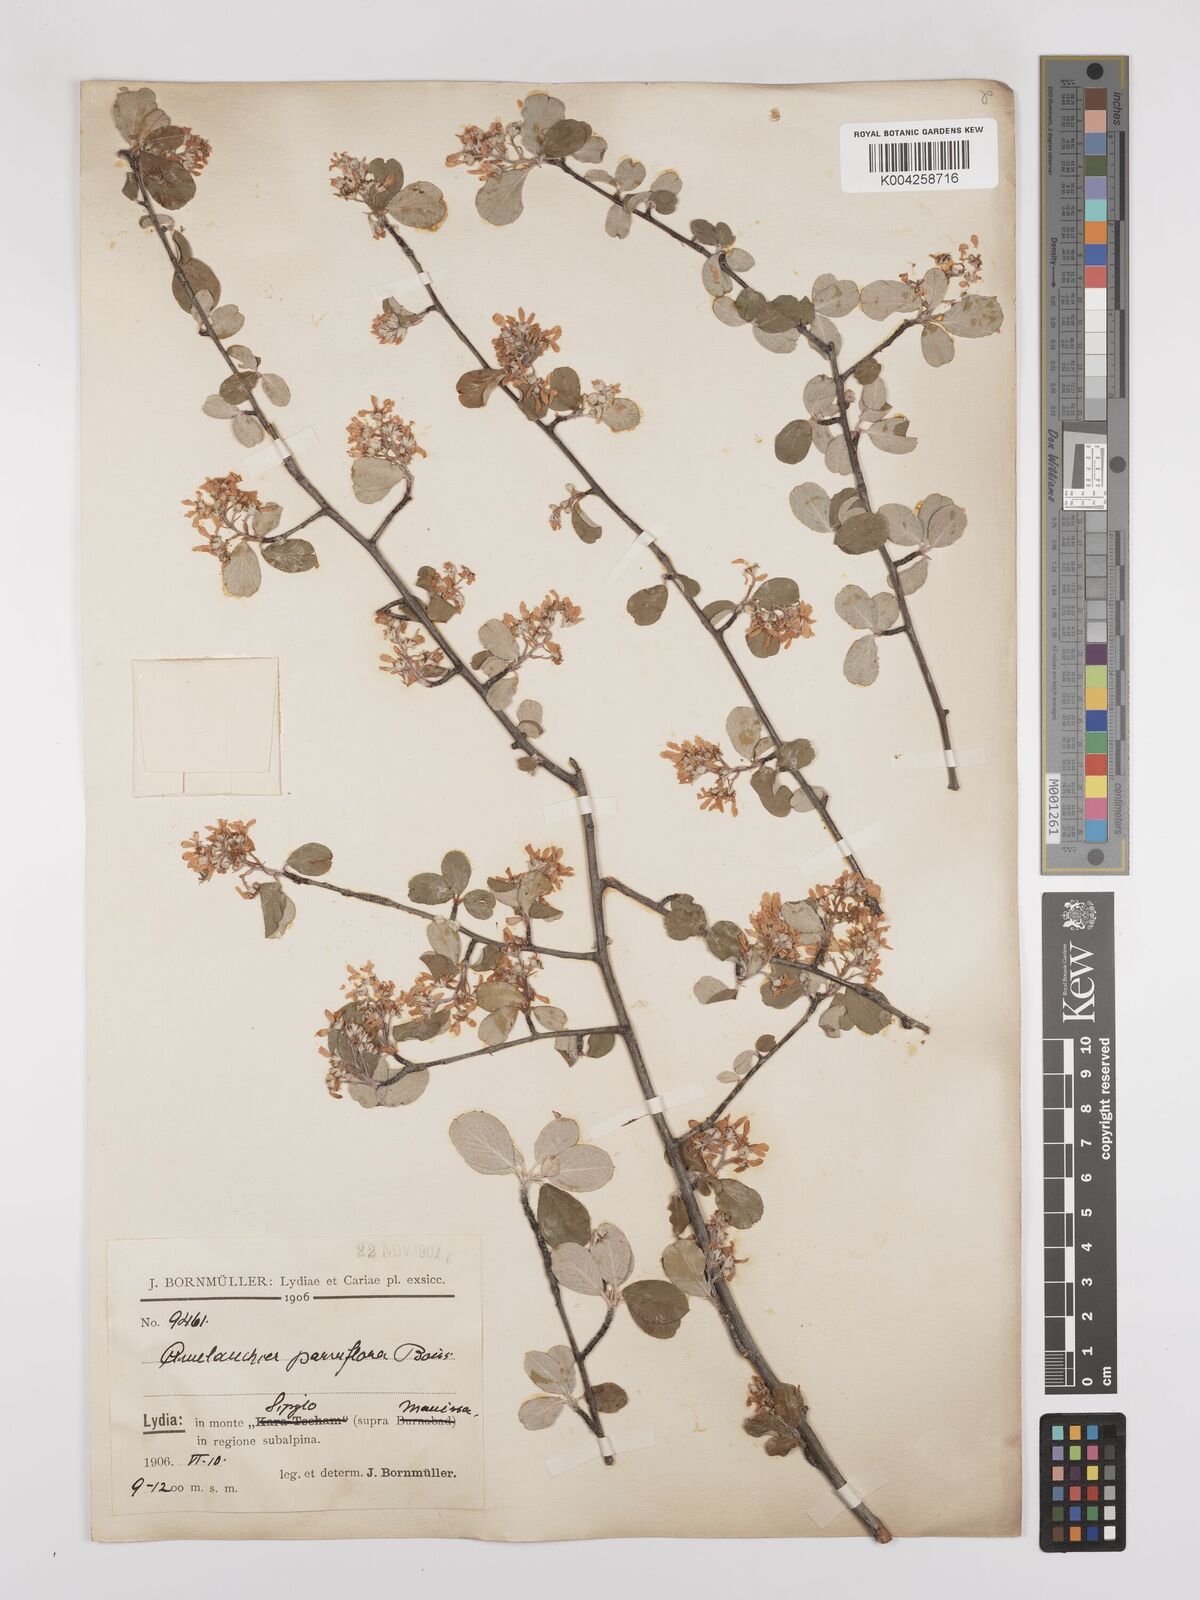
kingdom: Plantae
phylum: Tracheophyta
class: Magnoliopsida
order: Rosales
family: Rosaceae
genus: Amelanchier
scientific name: Amelanchier parviflora
